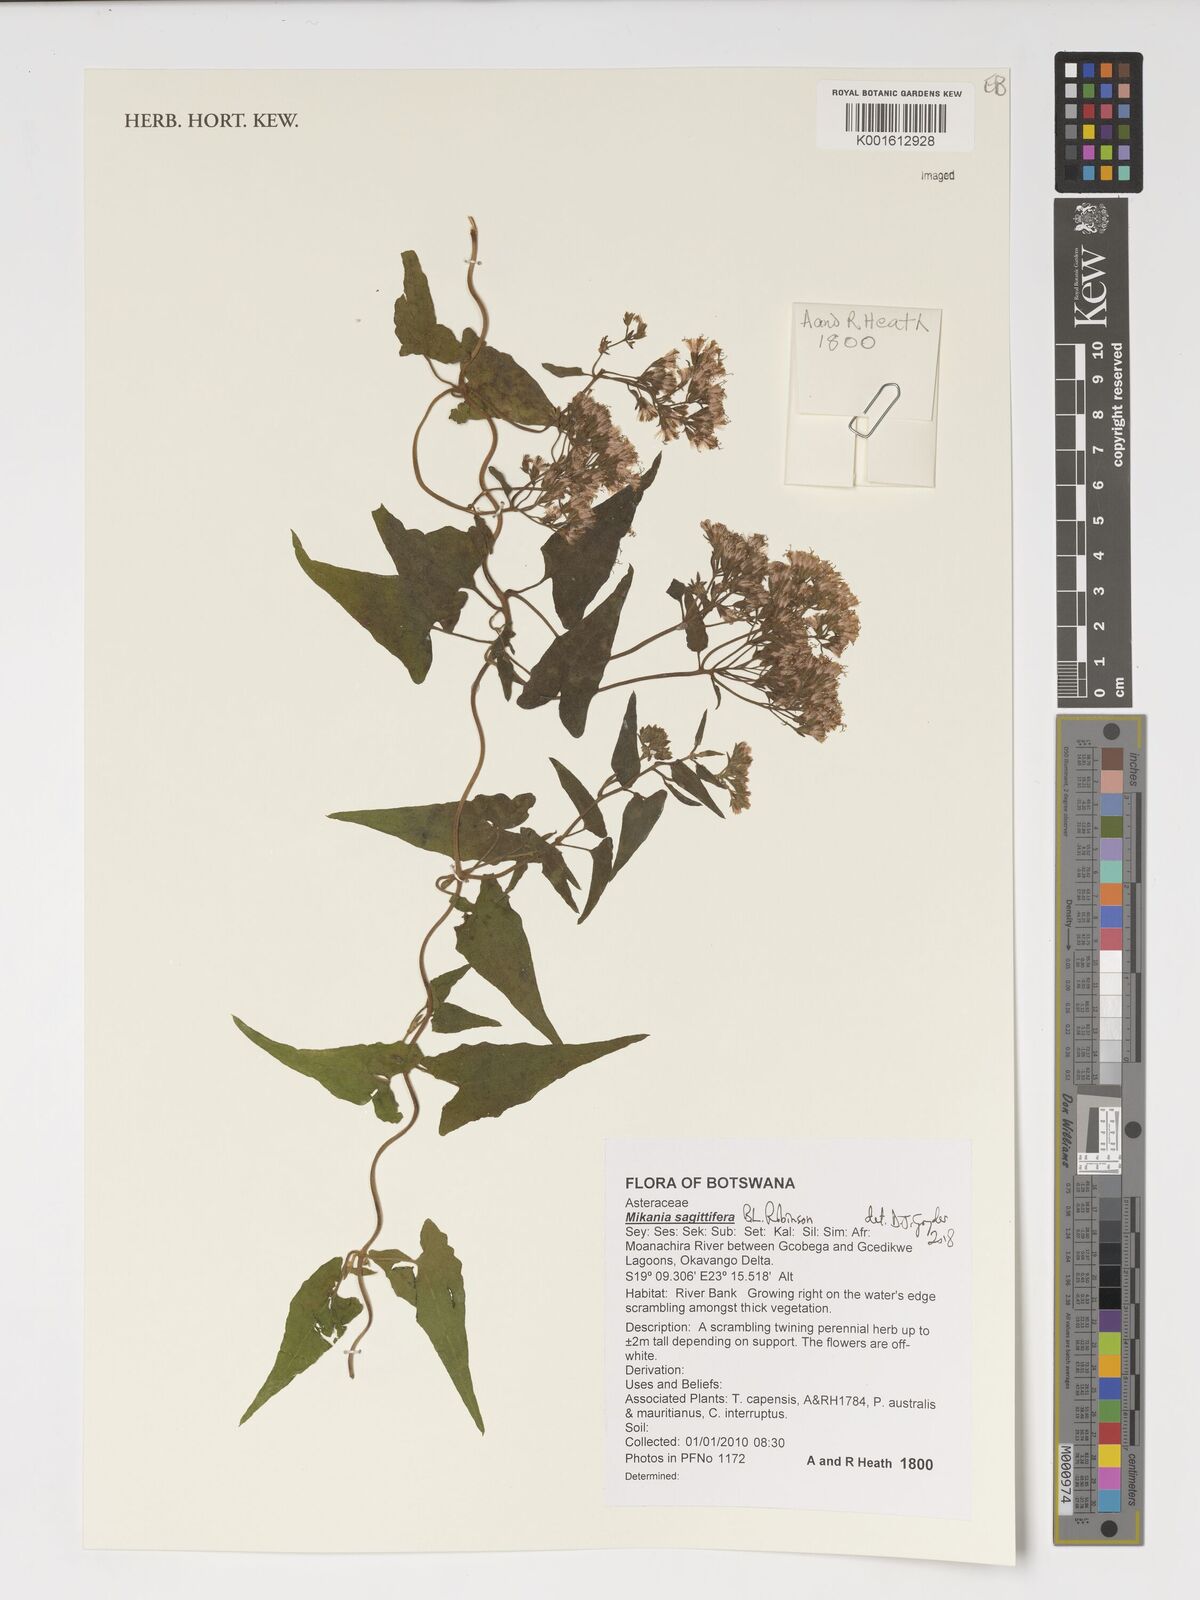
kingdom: Plantae
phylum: Tracheophyta
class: Magnoliopsida
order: Asterales
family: Asteraceae
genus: Mikania
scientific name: Mikania sagittifera
